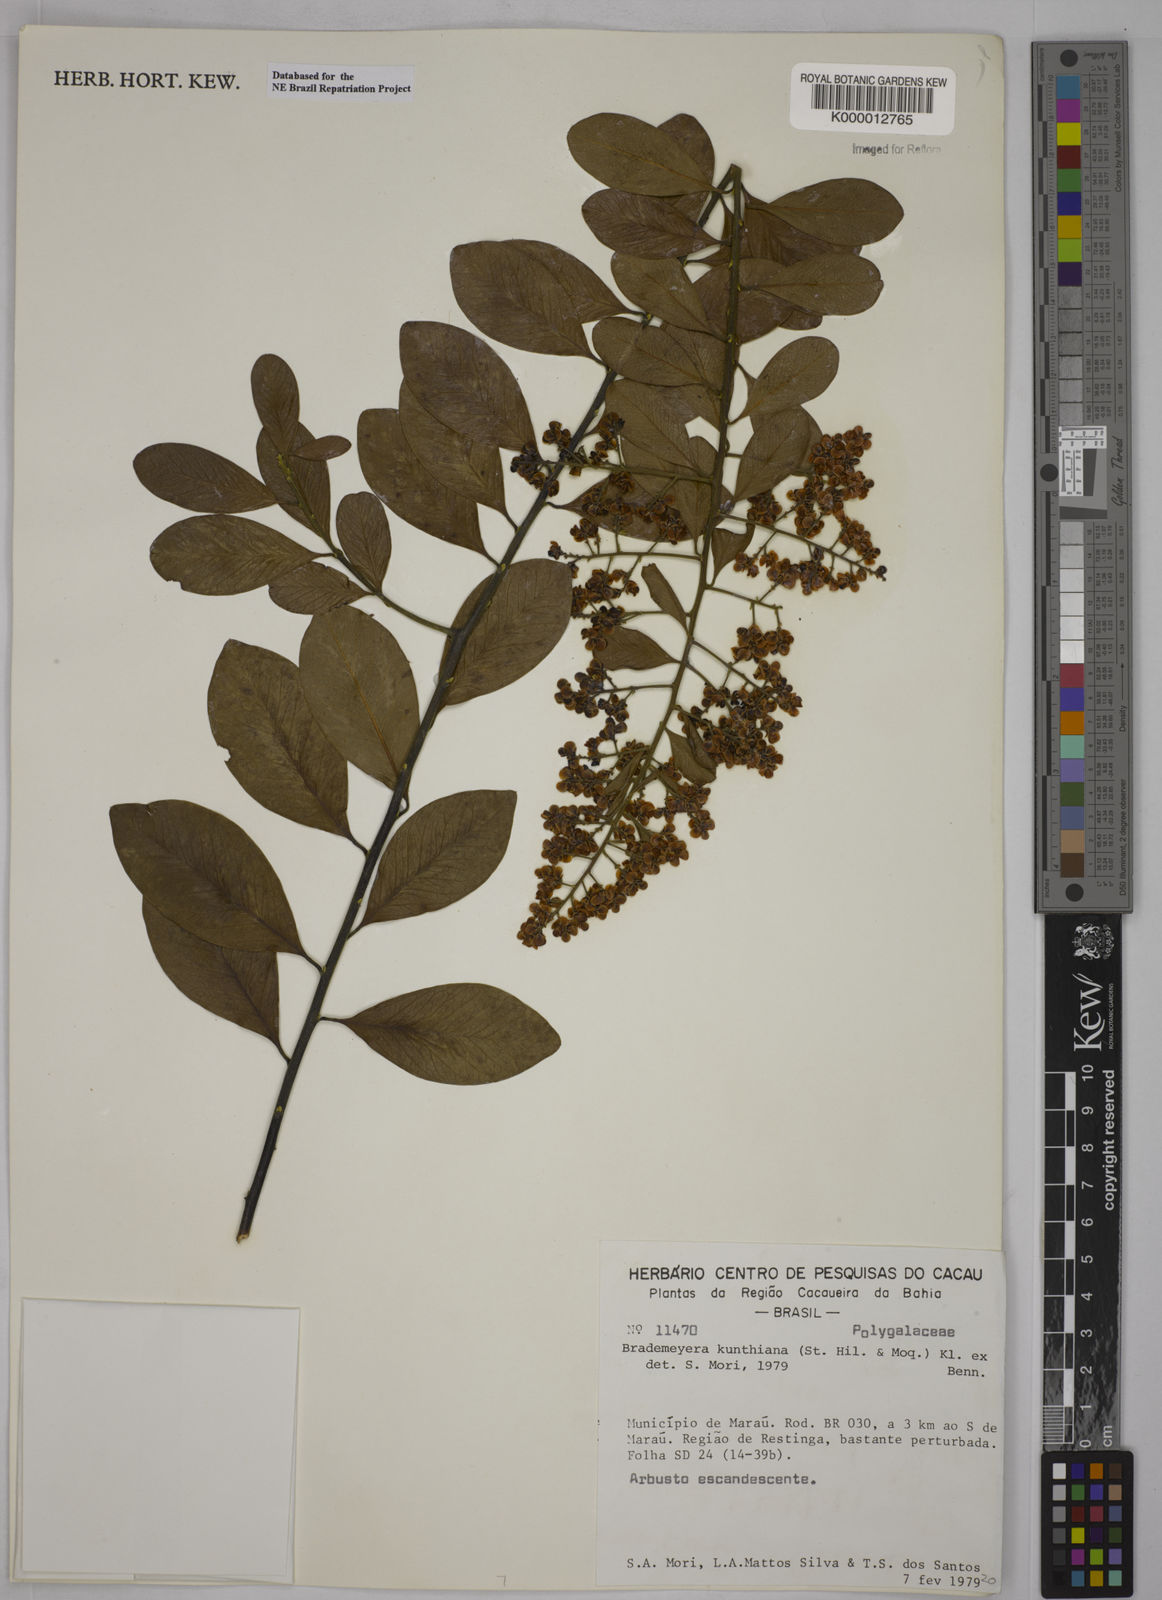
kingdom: Plantae
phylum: Tracheophyta
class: Magnoliopsida
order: Fabales
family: Polygalaceae
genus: Bredemeyera
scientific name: Bredemeyera hebeclada
